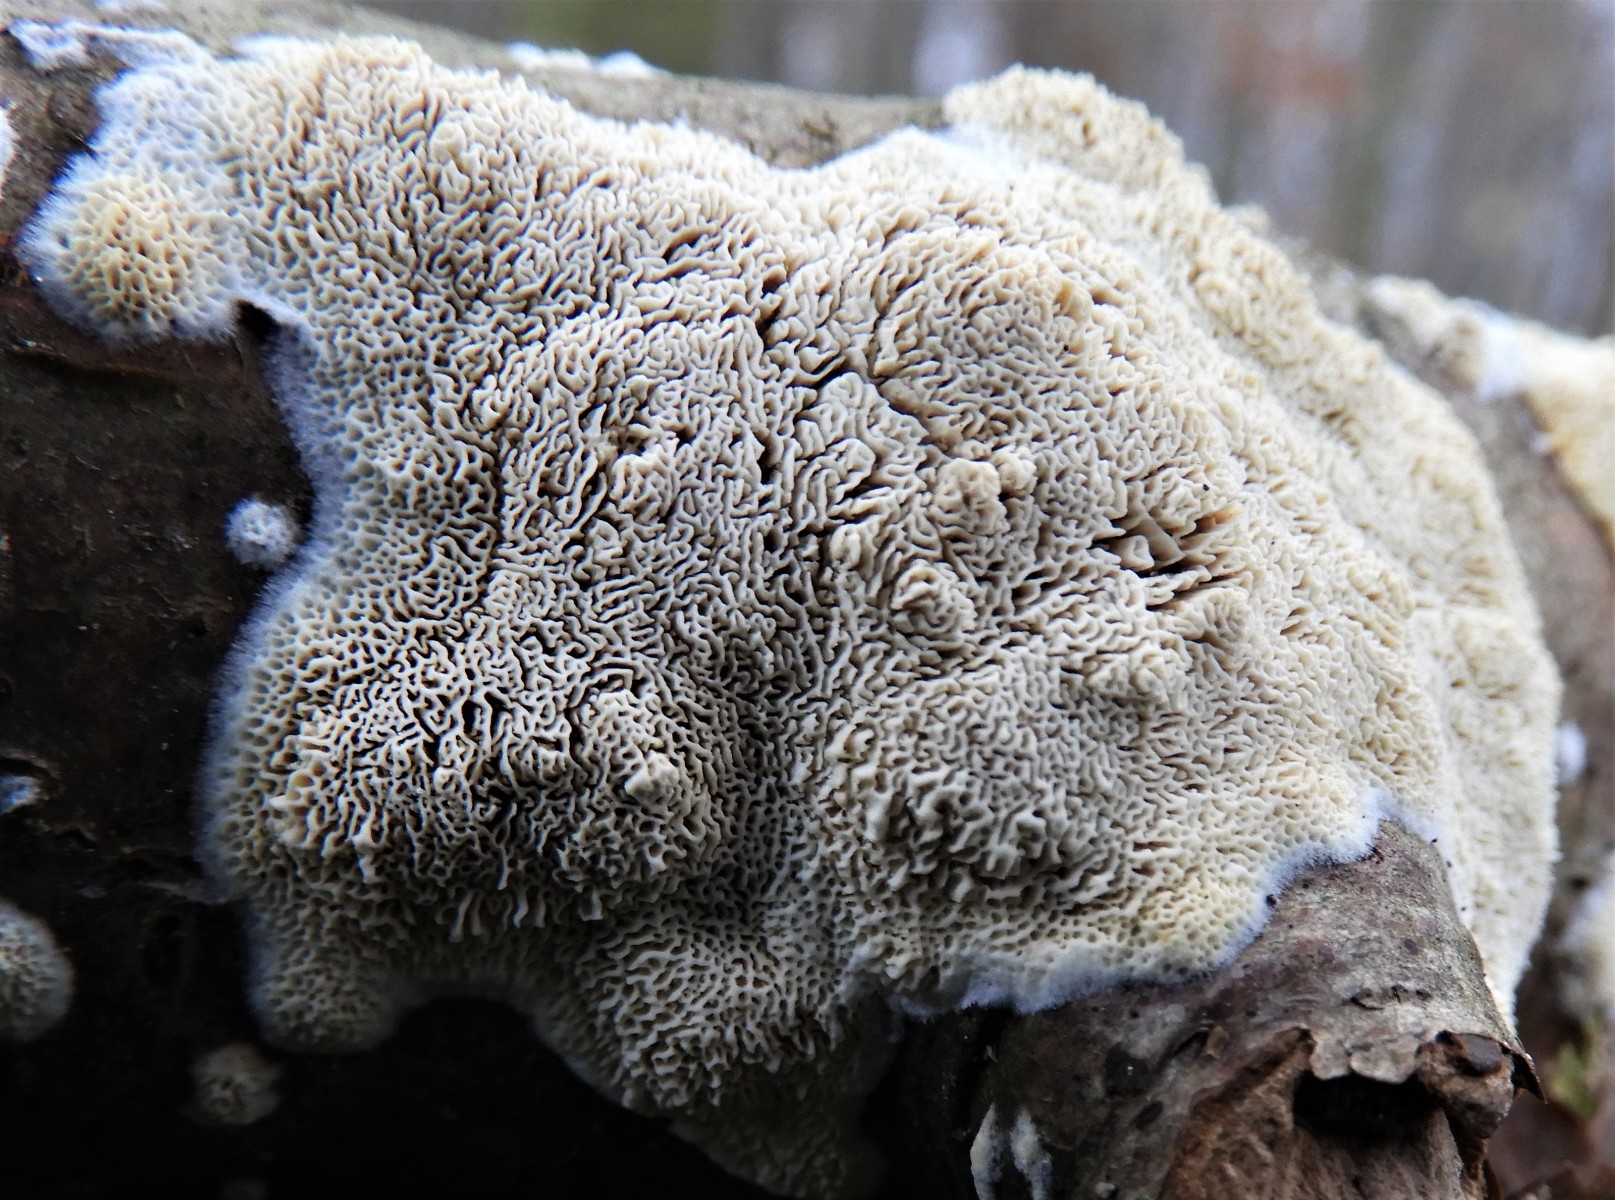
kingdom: Fungi
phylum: Basidiomycota
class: Agaricomycetes
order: Hymenochaetales
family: Schizoporaceae
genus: Xylodon
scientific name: Xylodon subtropicus
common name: labyrint-tandsvamp
